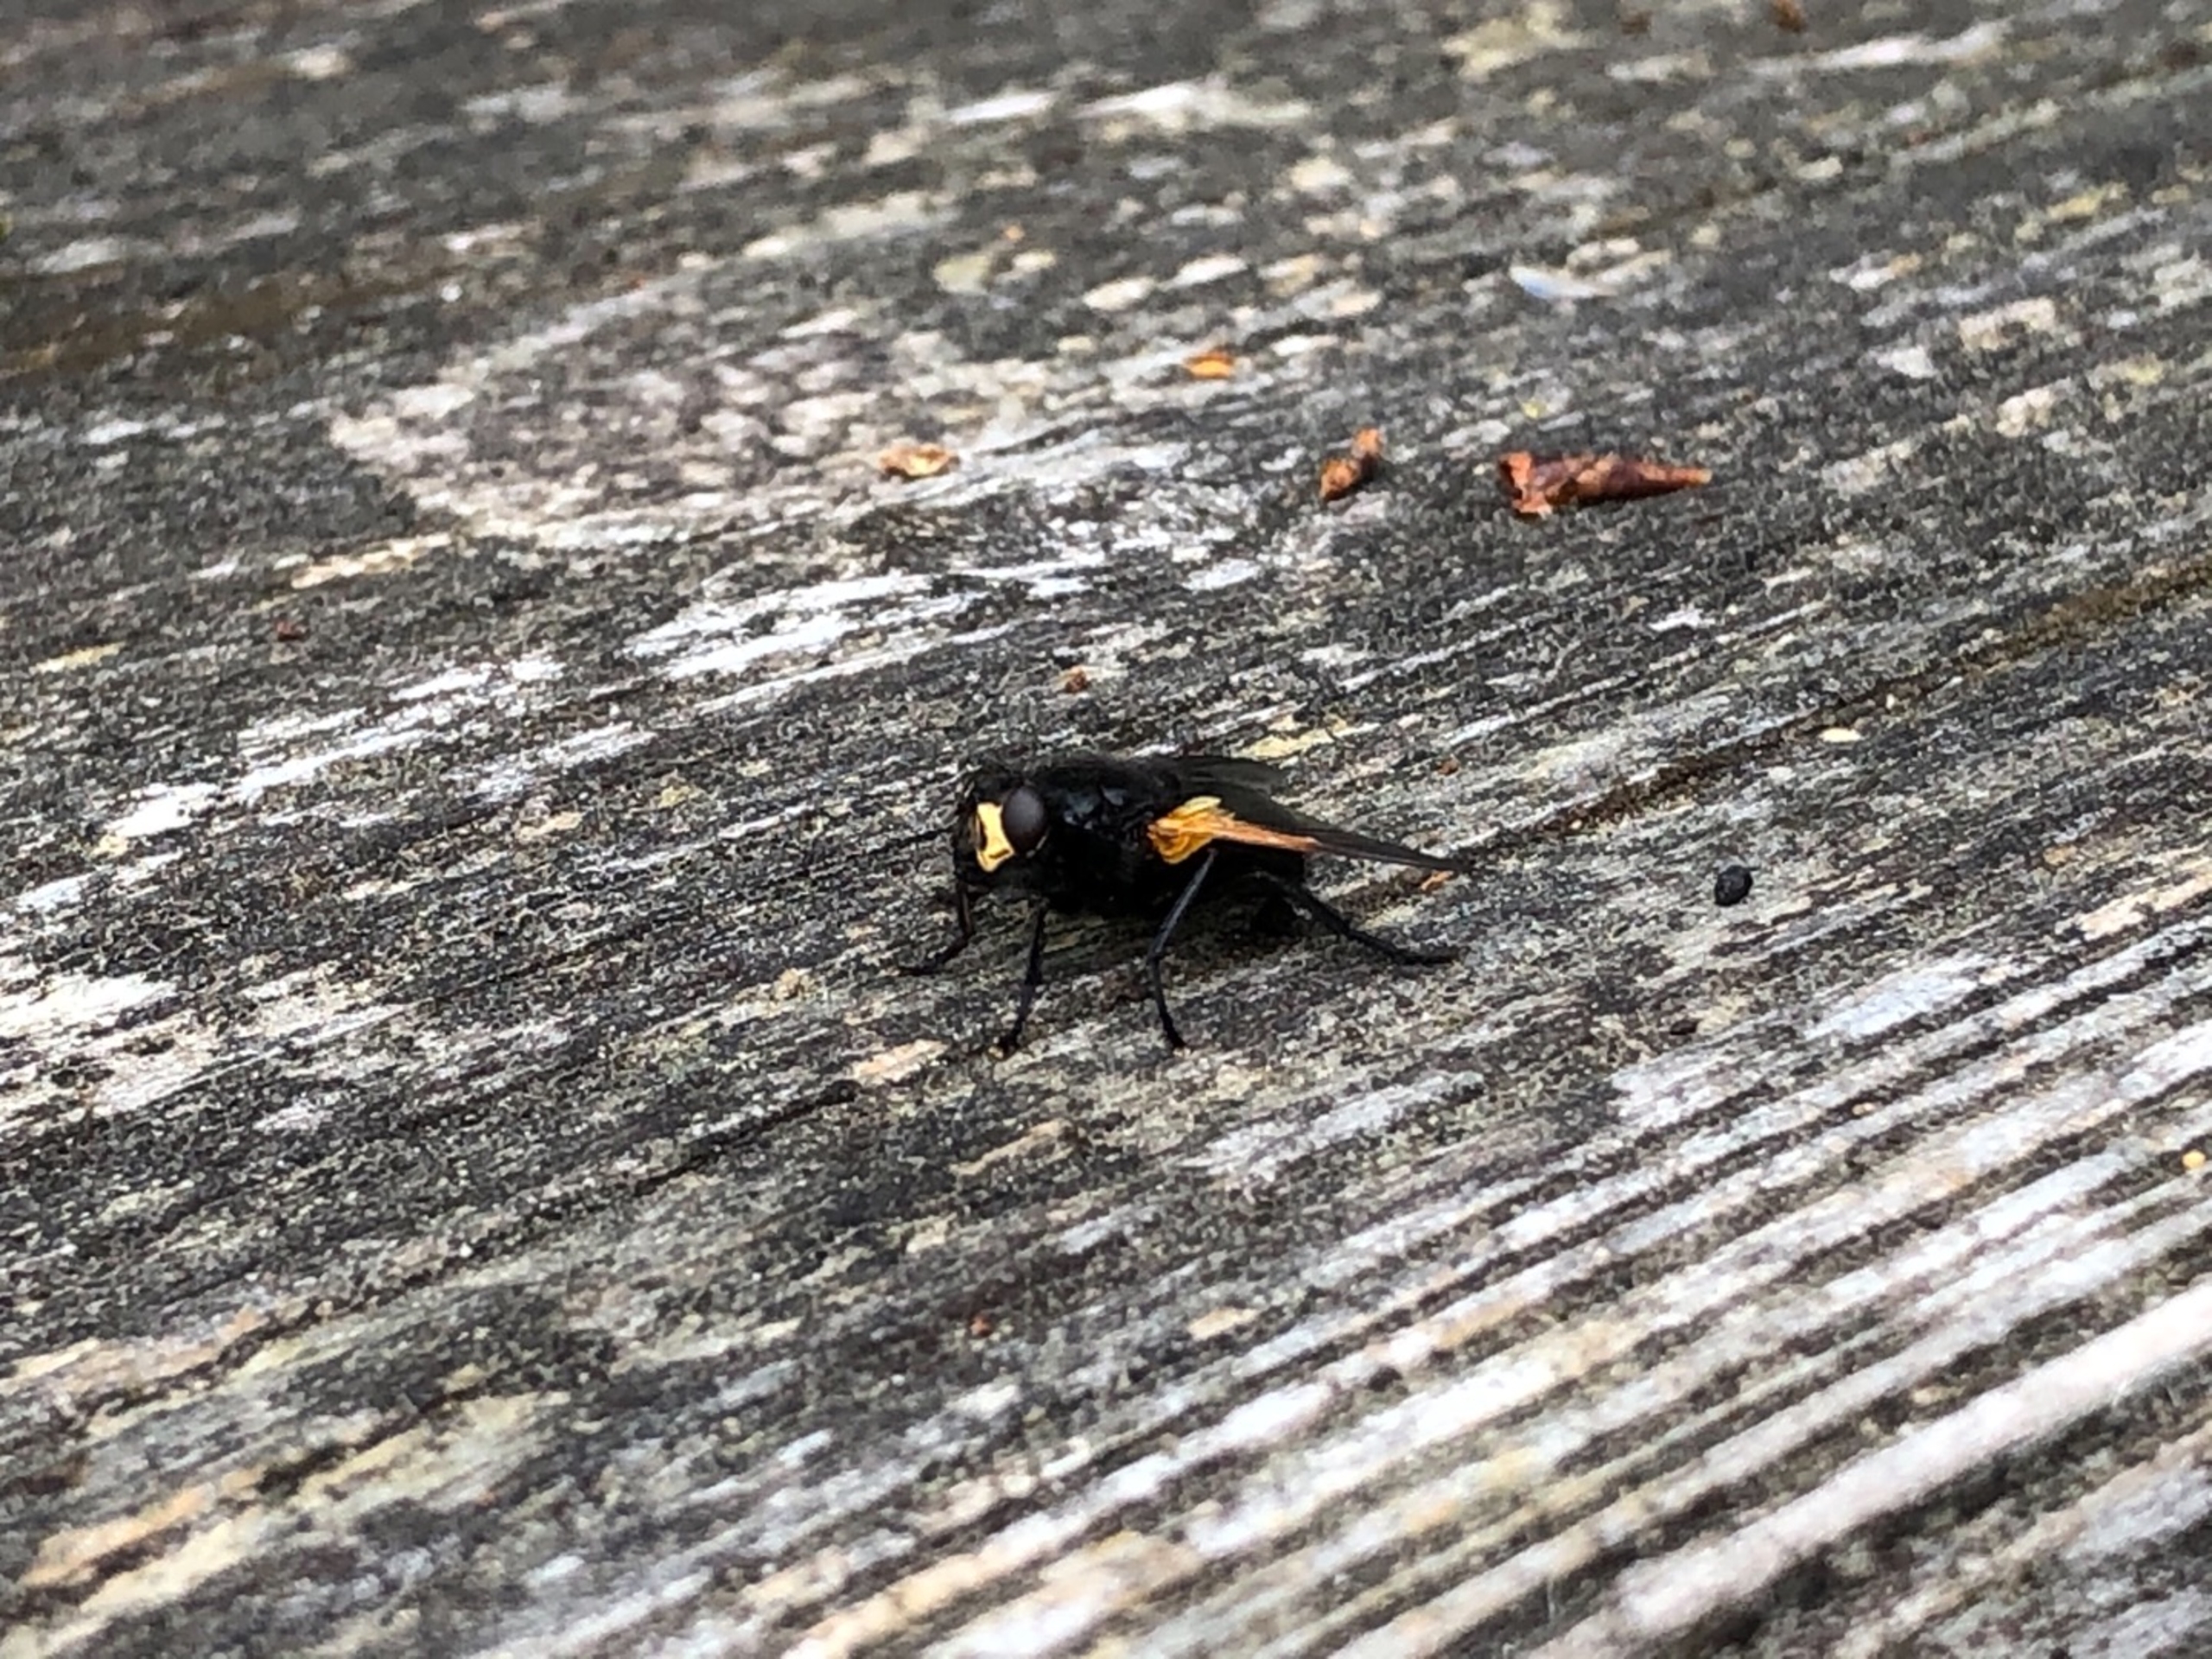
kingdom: Animalia
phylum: Arthropoda
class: Insecta
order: Diptera
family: Muscidae
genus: Mesembrina
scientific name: Mesembrina meridiana
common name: Gulvinget flue
